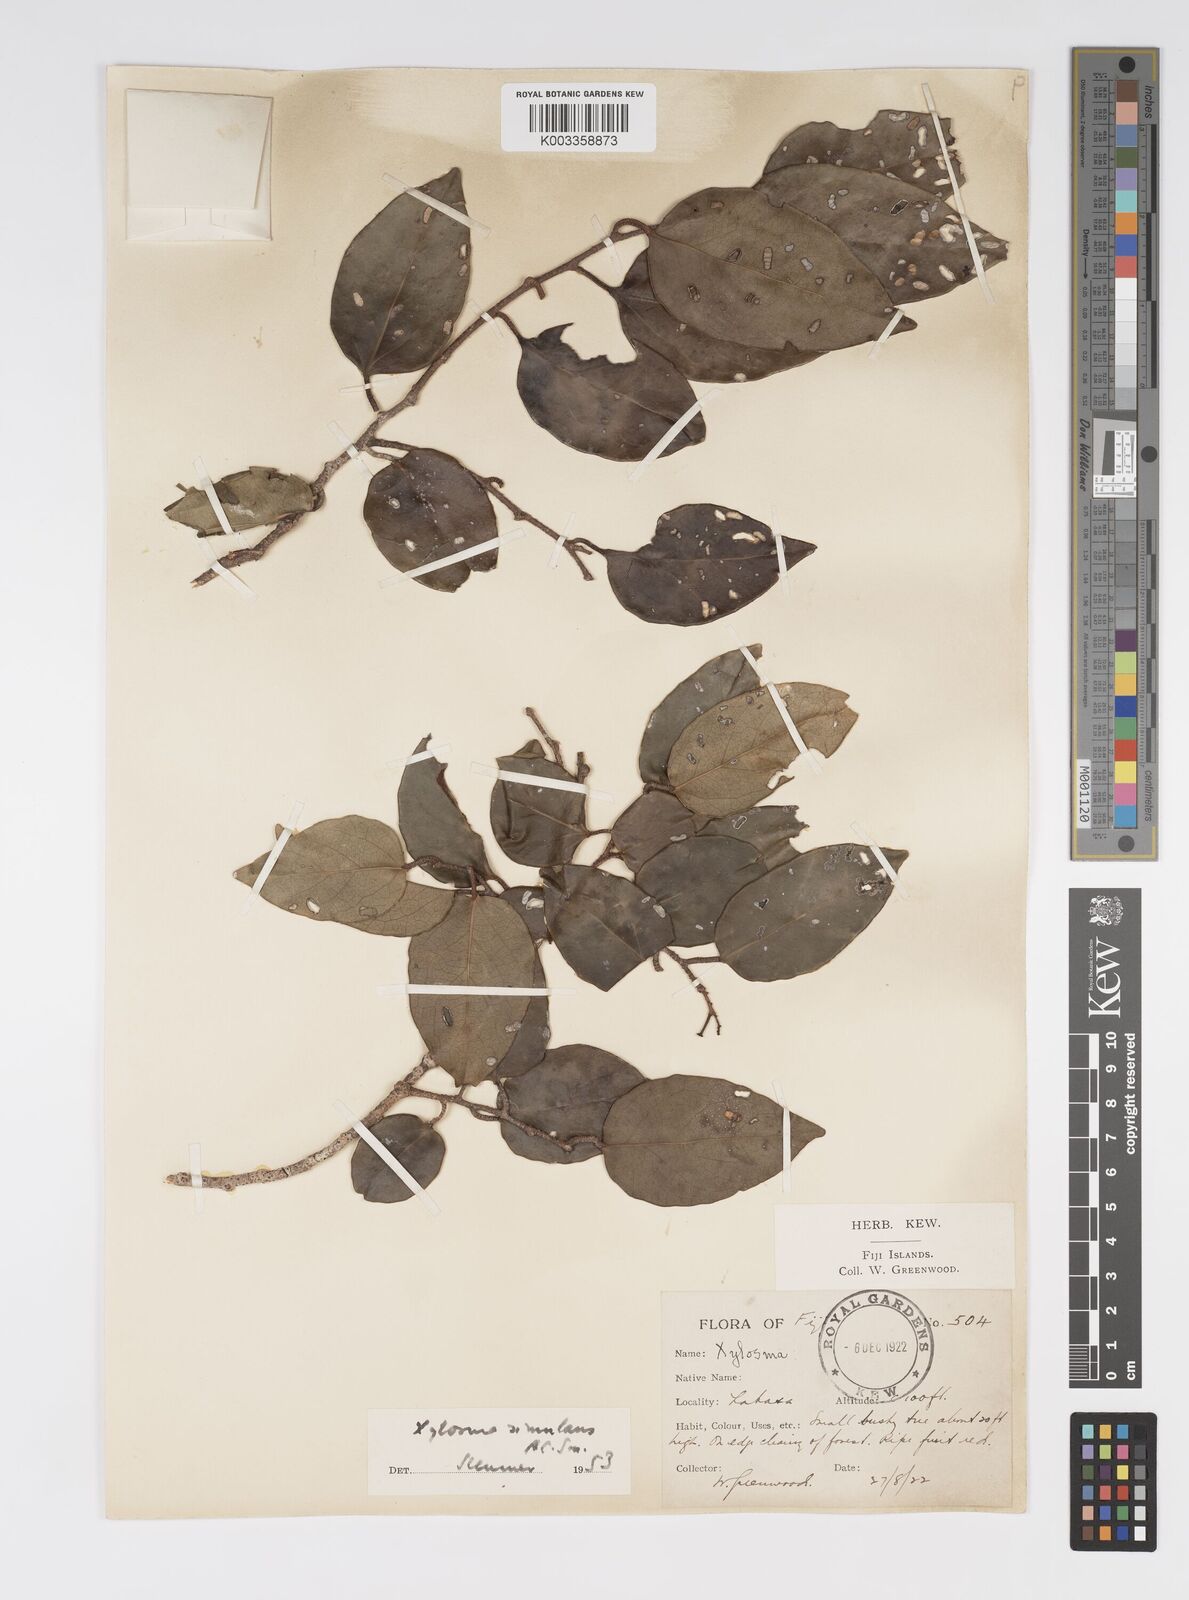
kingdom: Plantae
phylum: Tracheophyta
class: Magnoliopsida
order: Malpighiales
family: Salicaceae
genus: Xylosma
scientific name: Xylosma simulans
